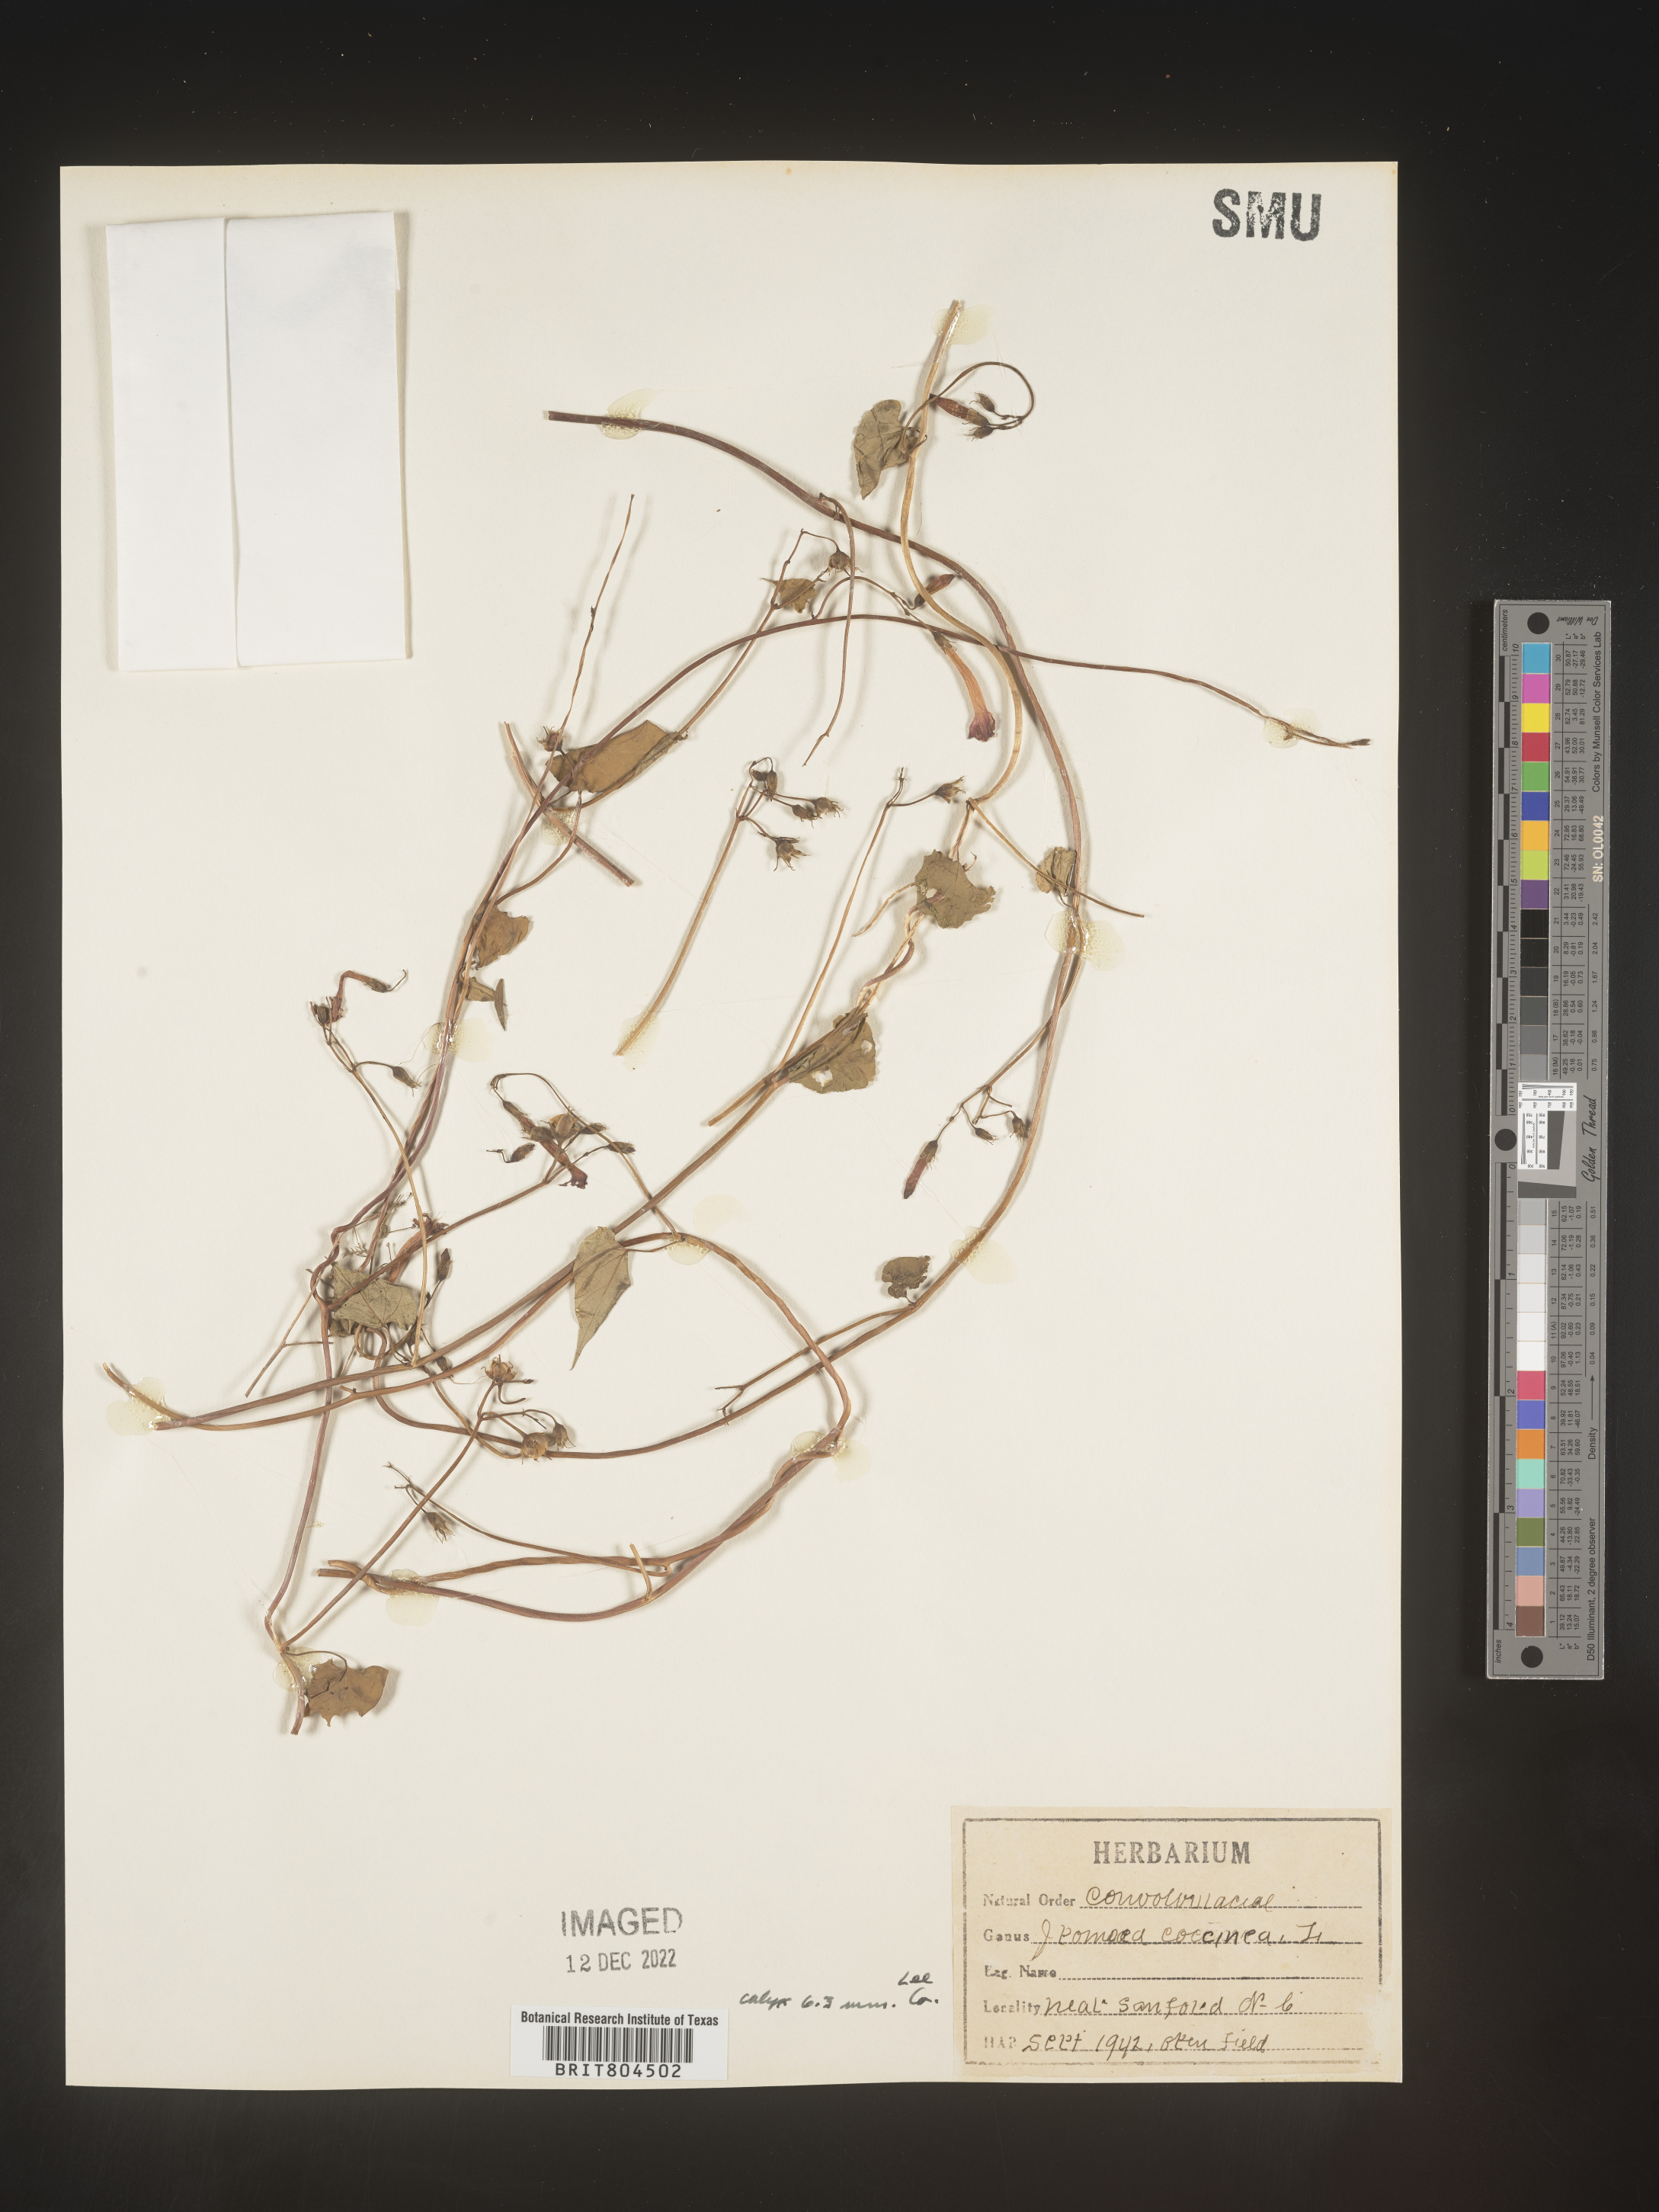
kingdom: Plantae
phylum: Tracheophyta
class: Magnoliopsida
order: Solanales
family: Convolvulaceae
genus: Ipomoea
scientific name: Ipomoea coccinea
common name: Red morning-glory
